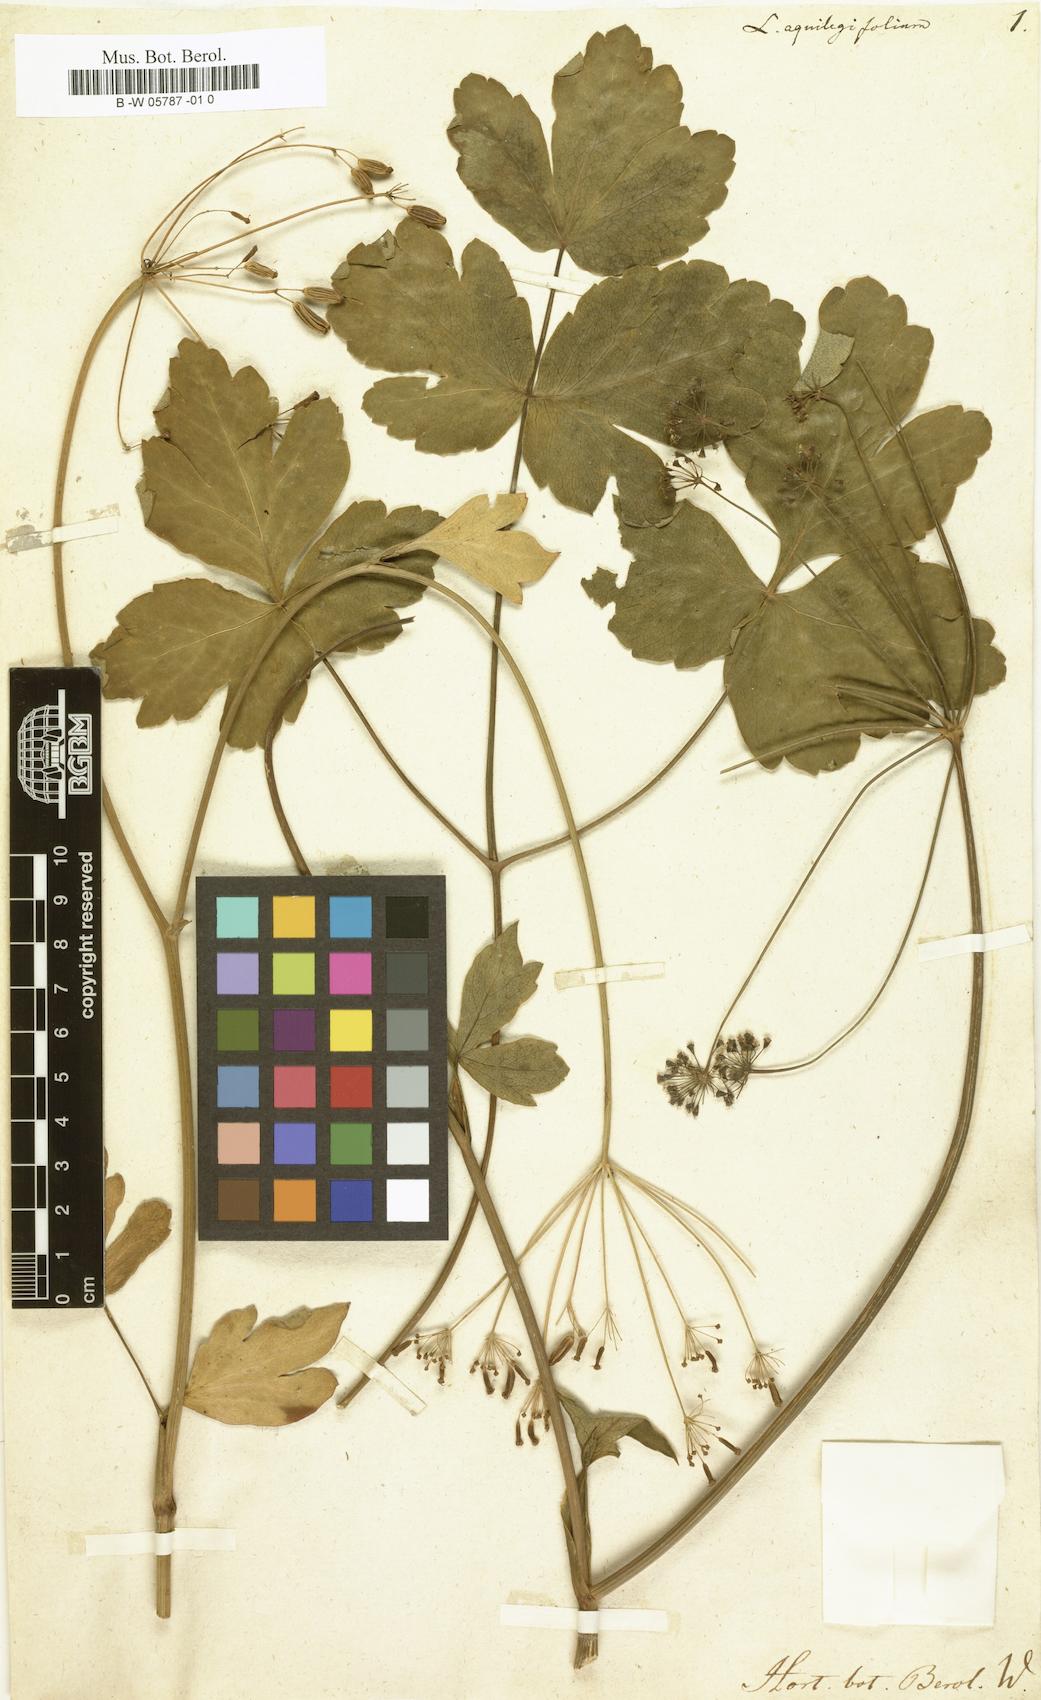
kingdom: Plantae
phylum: Tracheophyta
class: Magnoliopsida
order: Apiales
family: Apiaceae
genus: Laserpitium
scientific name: Laserpitium aquilegifolium
